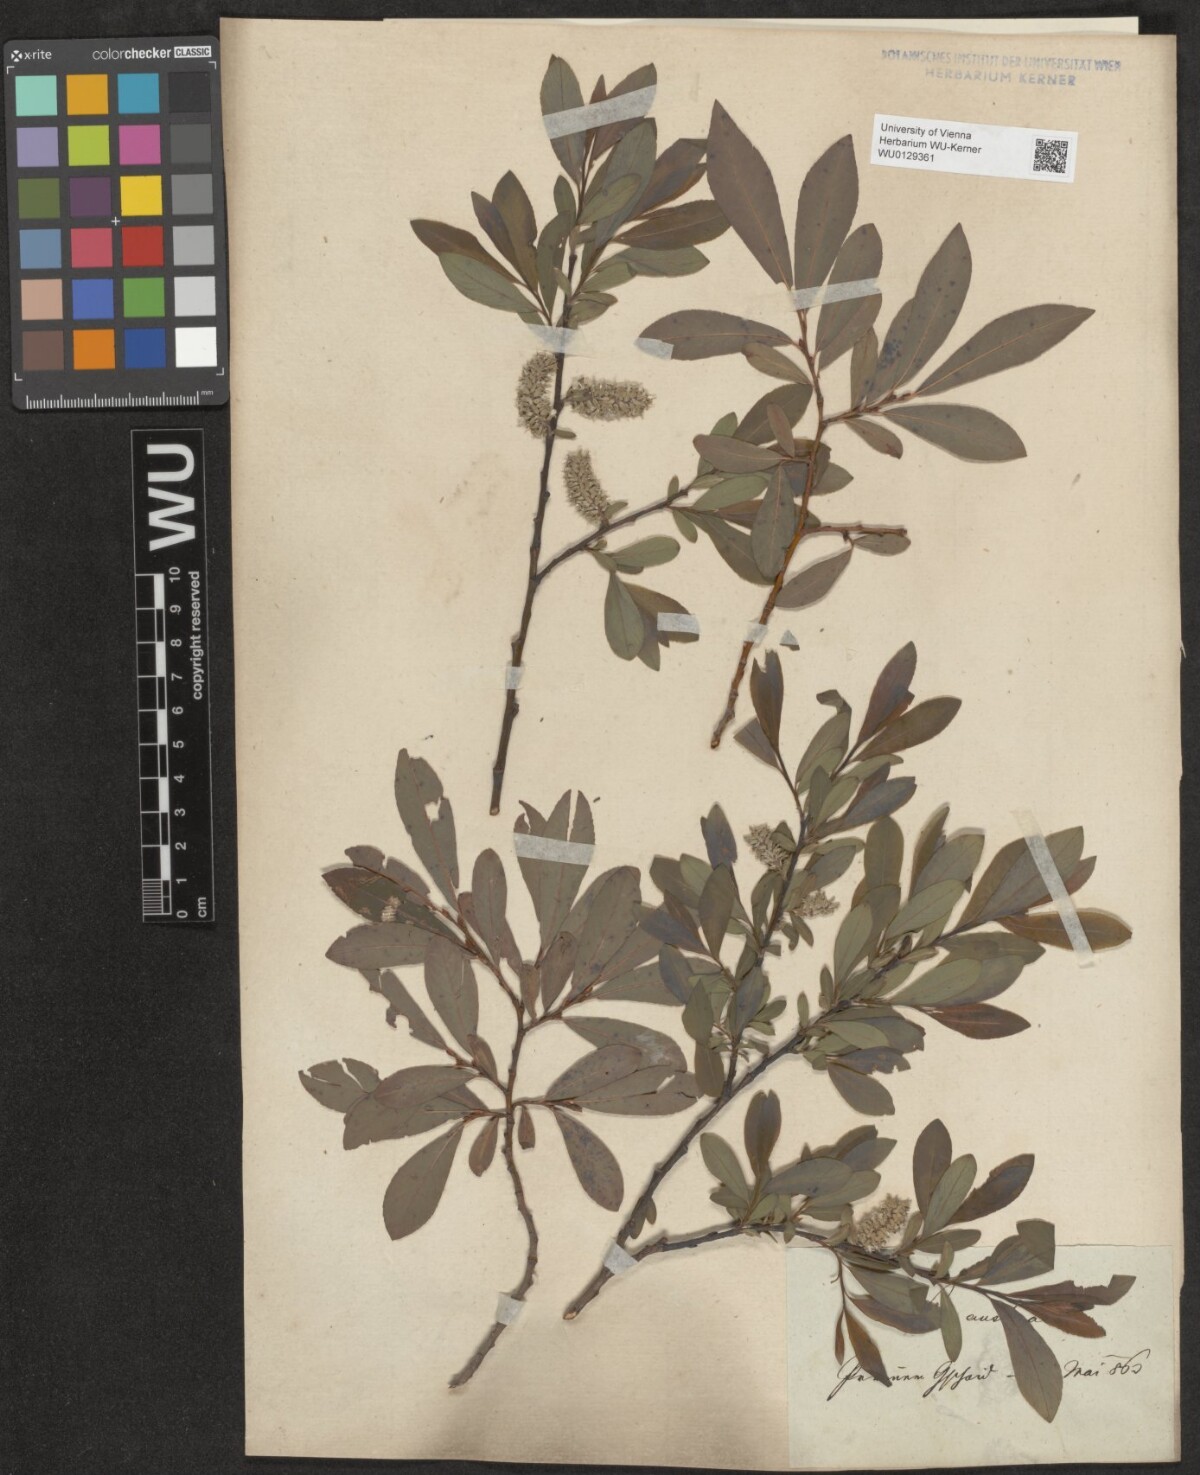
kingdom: Plantae
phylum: Tracheophyta
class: Magnoliopsida
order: Malpighiales
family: Salicaceae
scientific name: Salicaceae
